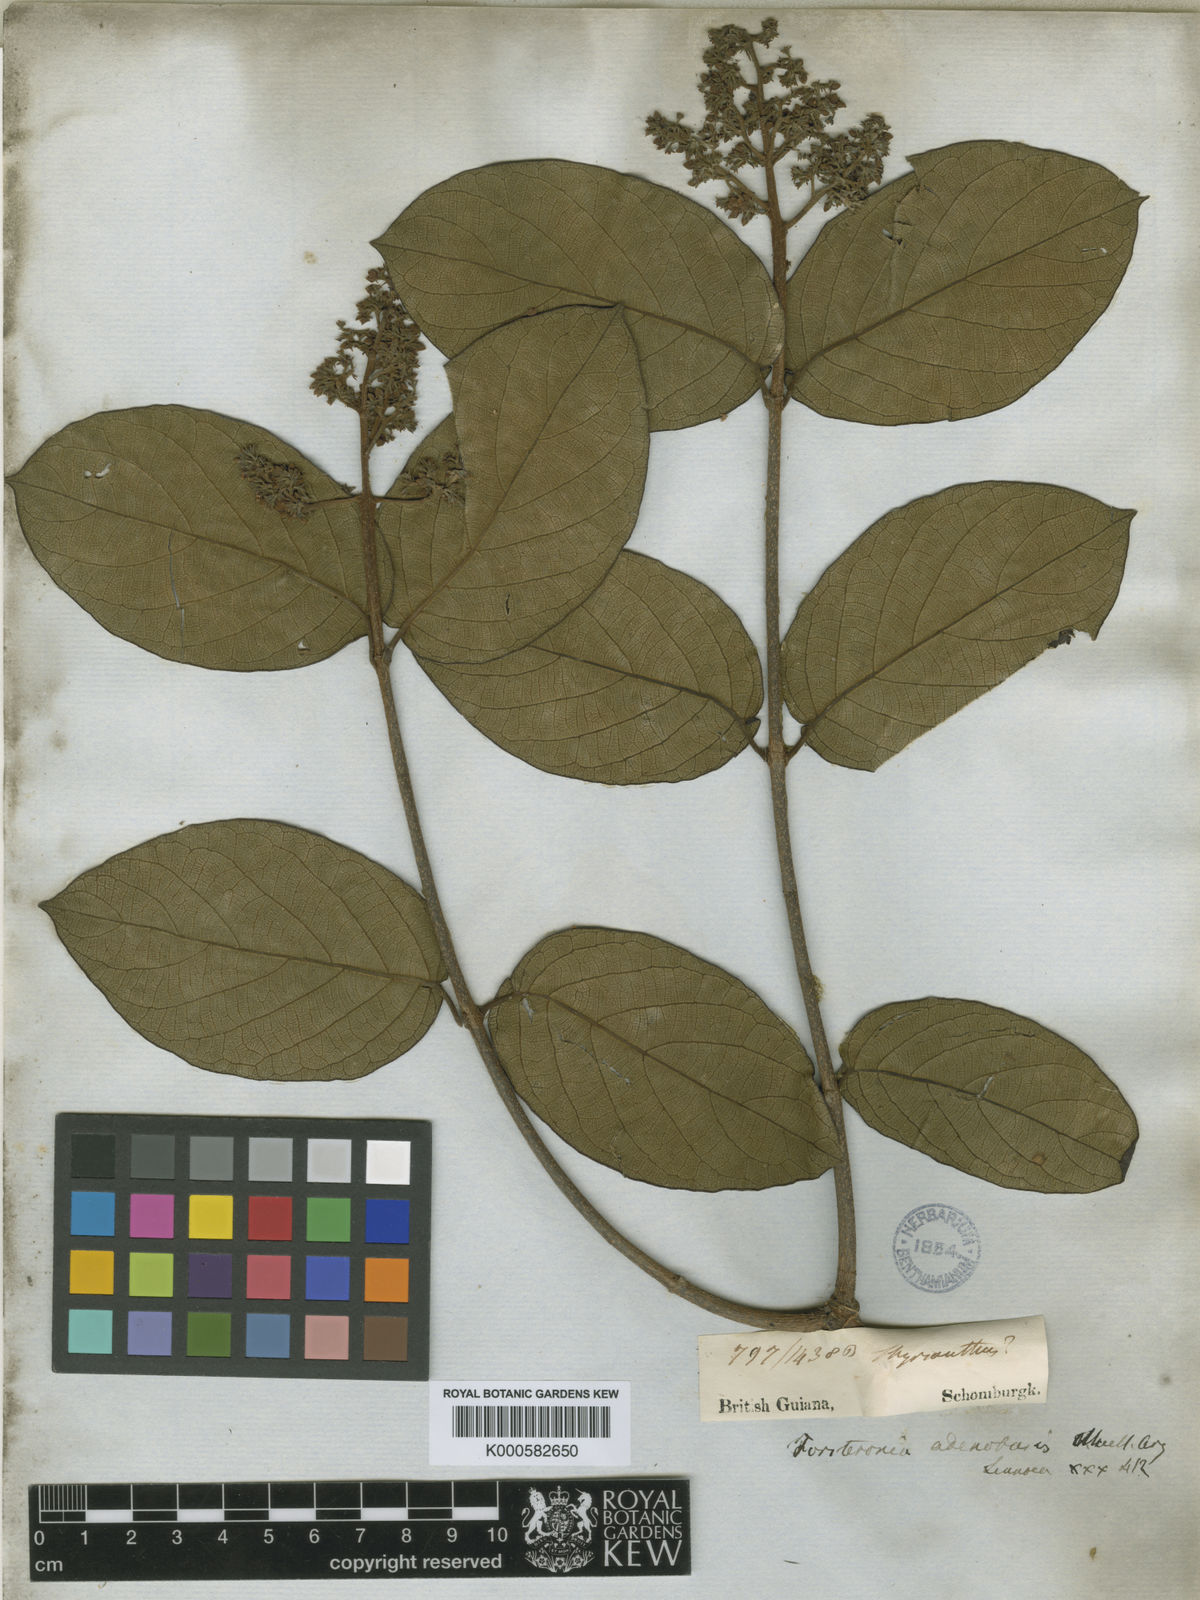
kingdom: Plantae
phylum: Tracheophyta
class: Magnoliopsida
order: Gentianales
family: Apocynaceae
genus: Forsteronia
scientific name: Forsteronia
